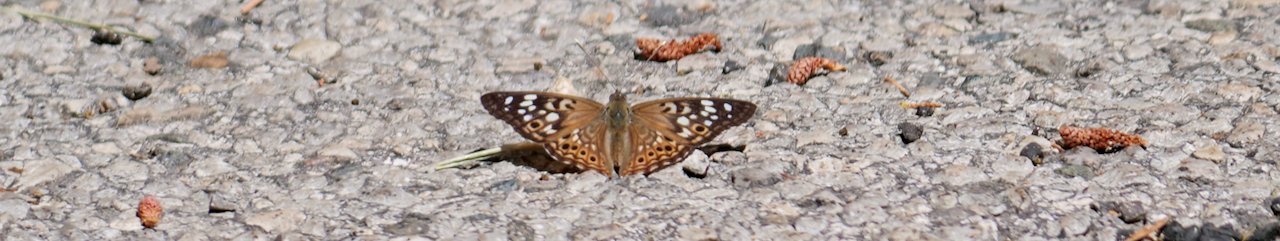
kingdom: Animalia
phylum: Arthropoda
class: Insecta
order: Lepidoptera
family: Nymphalidae
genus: Asterocampa
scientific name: Asterocampa celtis
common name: Hackberry Emperor
